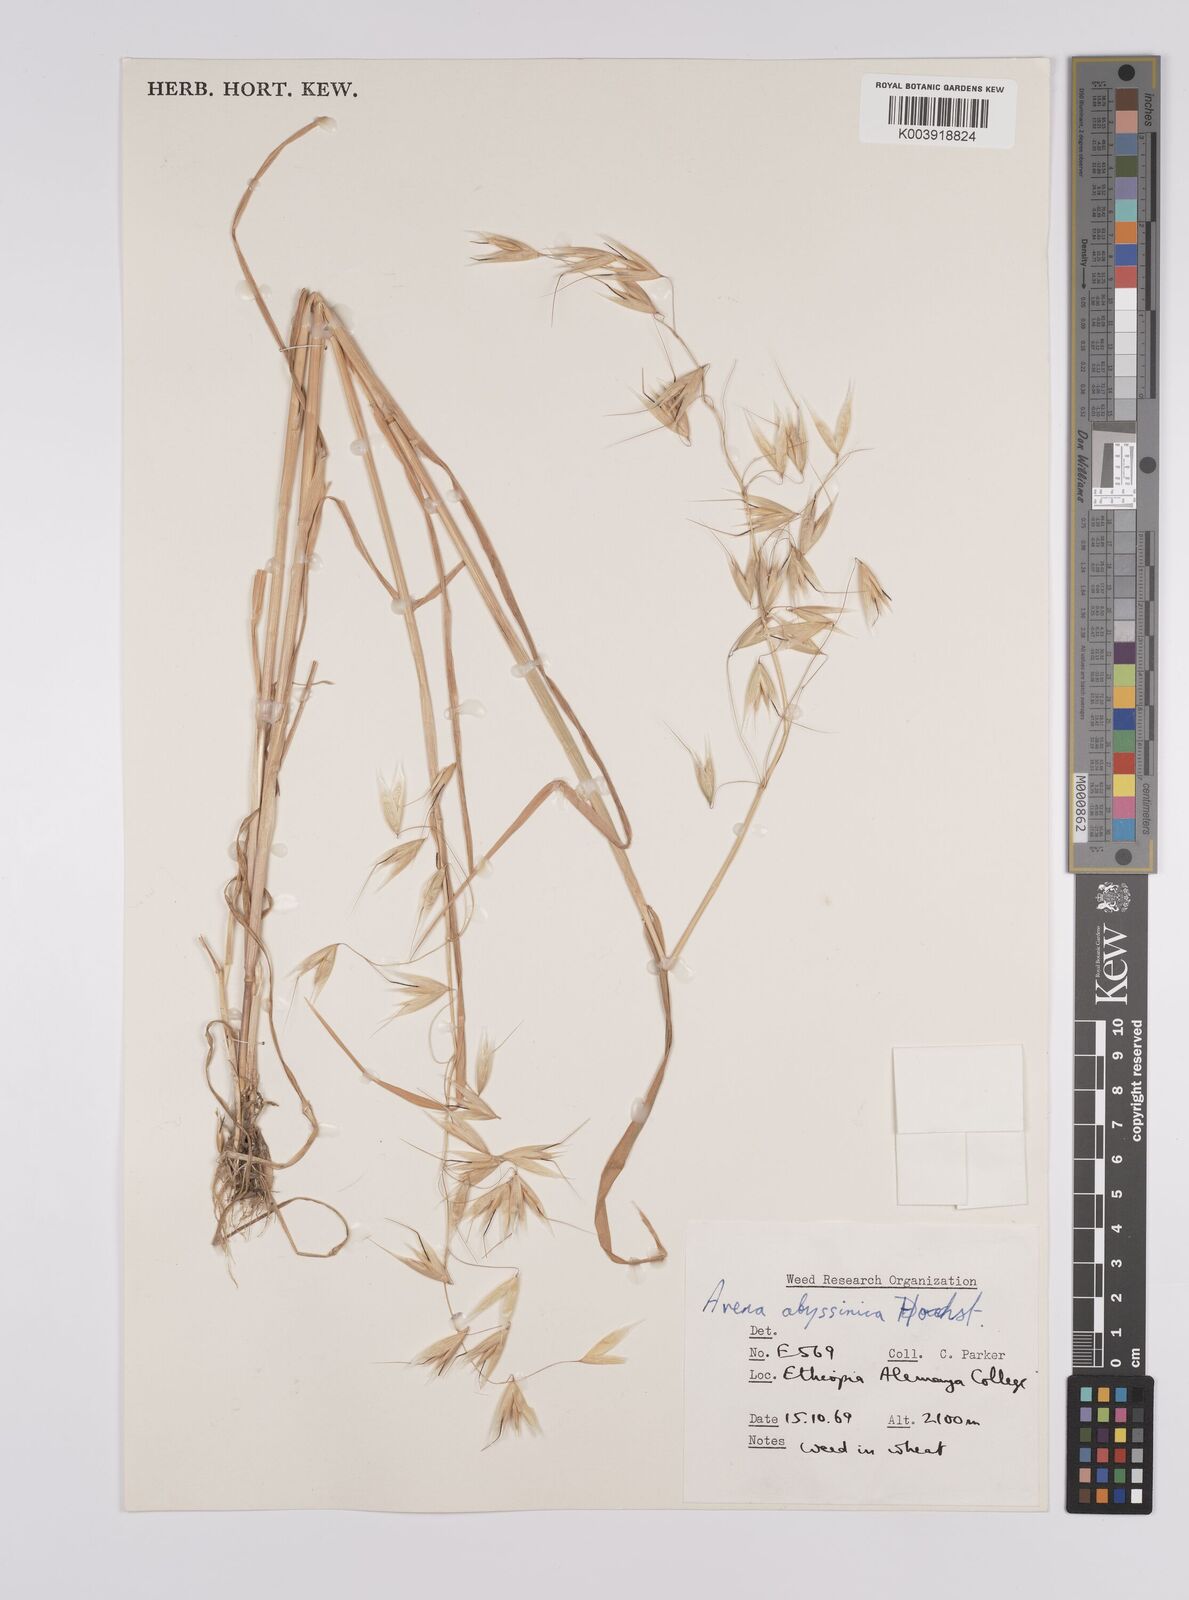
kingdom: Plantae
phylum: Tracheophyta
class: Liliopsida
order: Poales
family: Poaceae
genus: Avena
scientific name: Avena abyssinica
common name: Ethiopian oat
